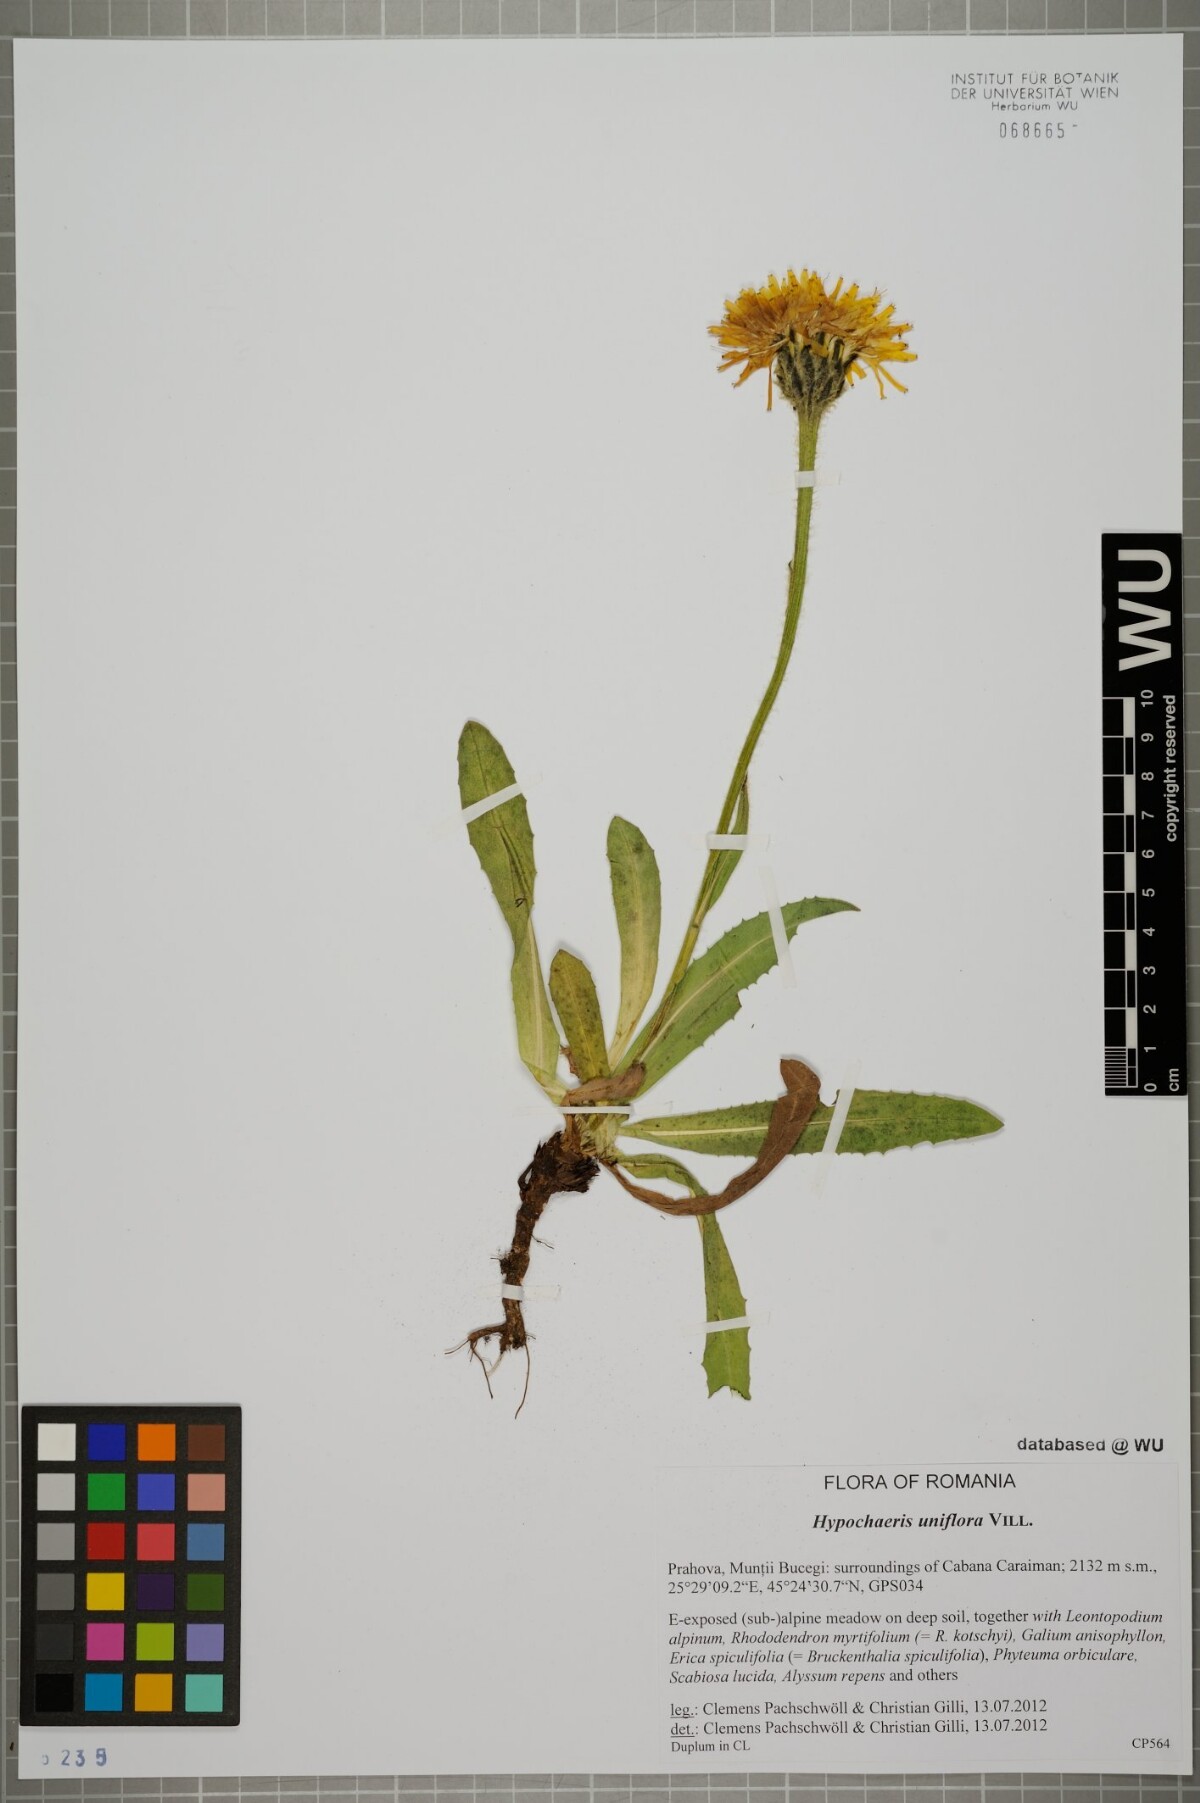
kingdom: Plantae
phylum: Tracheophyta
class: Magnoliopsida
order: Asterales
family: Asteraceae
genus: Trommsdorffia
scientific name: Trommsdorffia uniflora
